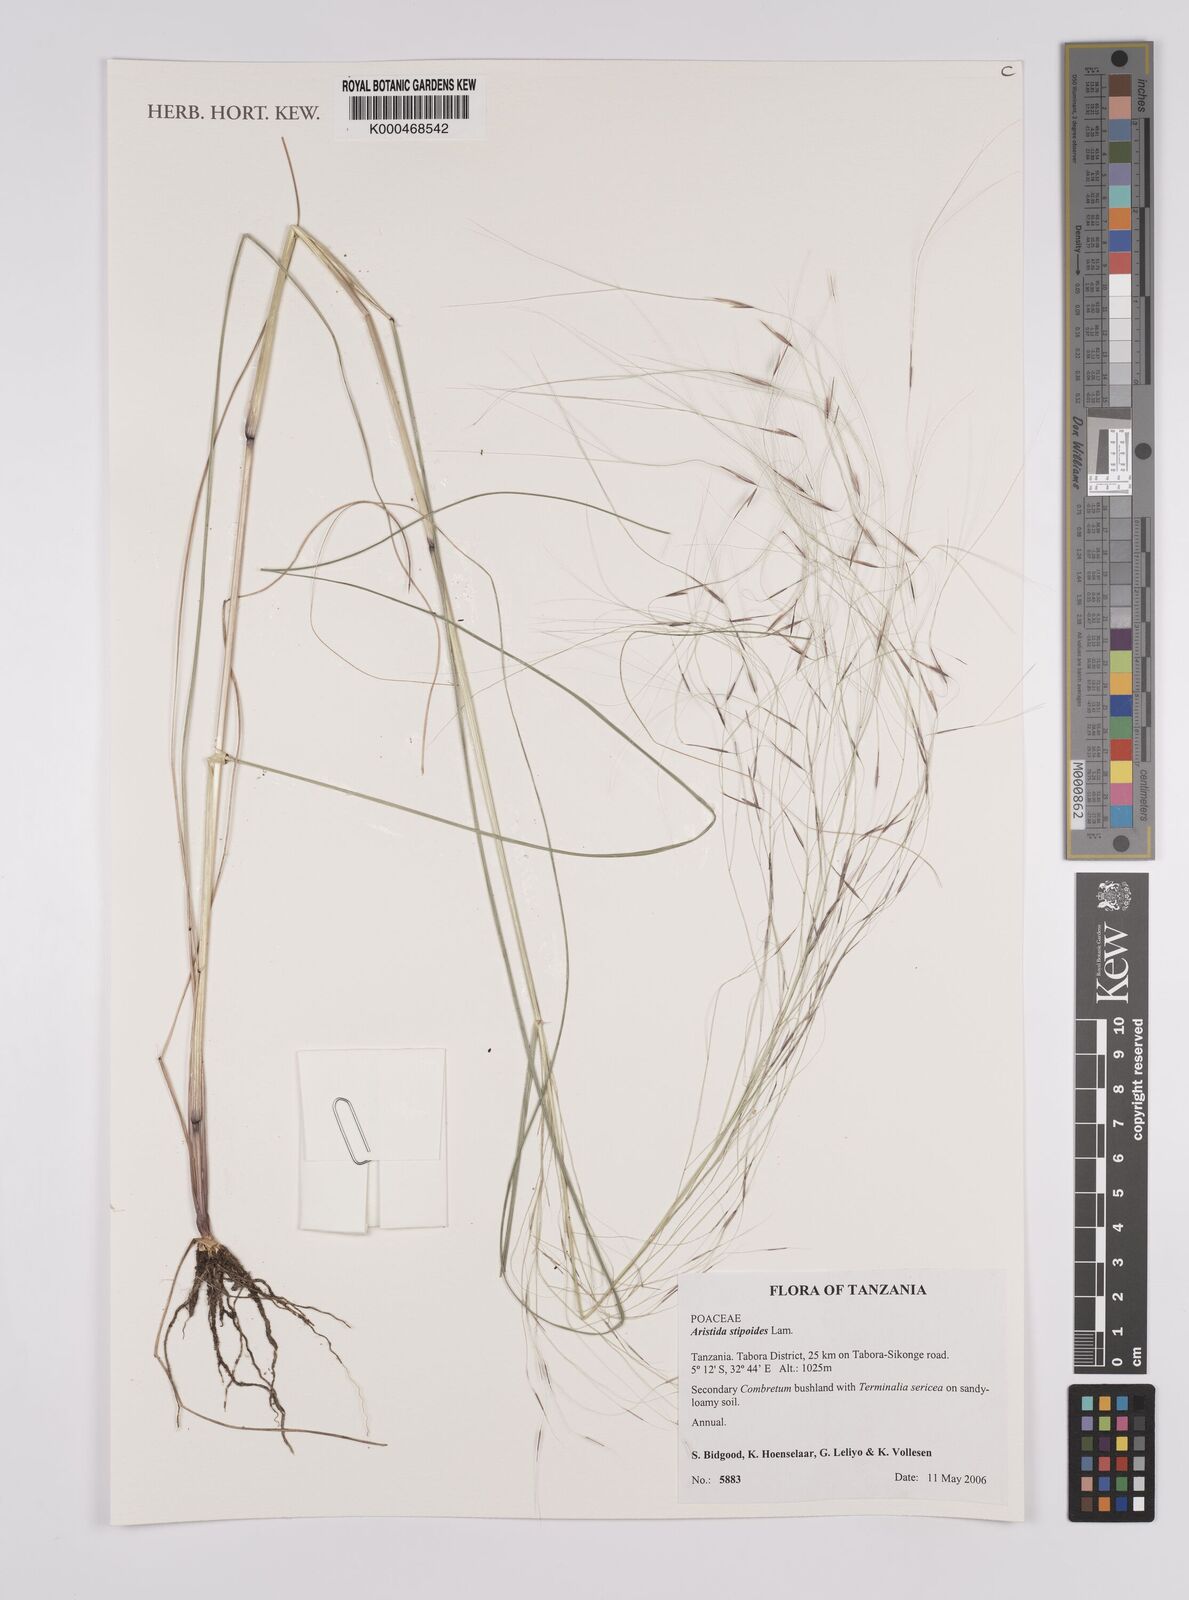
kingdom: Plantae
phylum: Tracheophyta
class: Liliopsida
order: Poales
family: Poaceae
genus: Aristida
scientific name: Aristida stipoides
